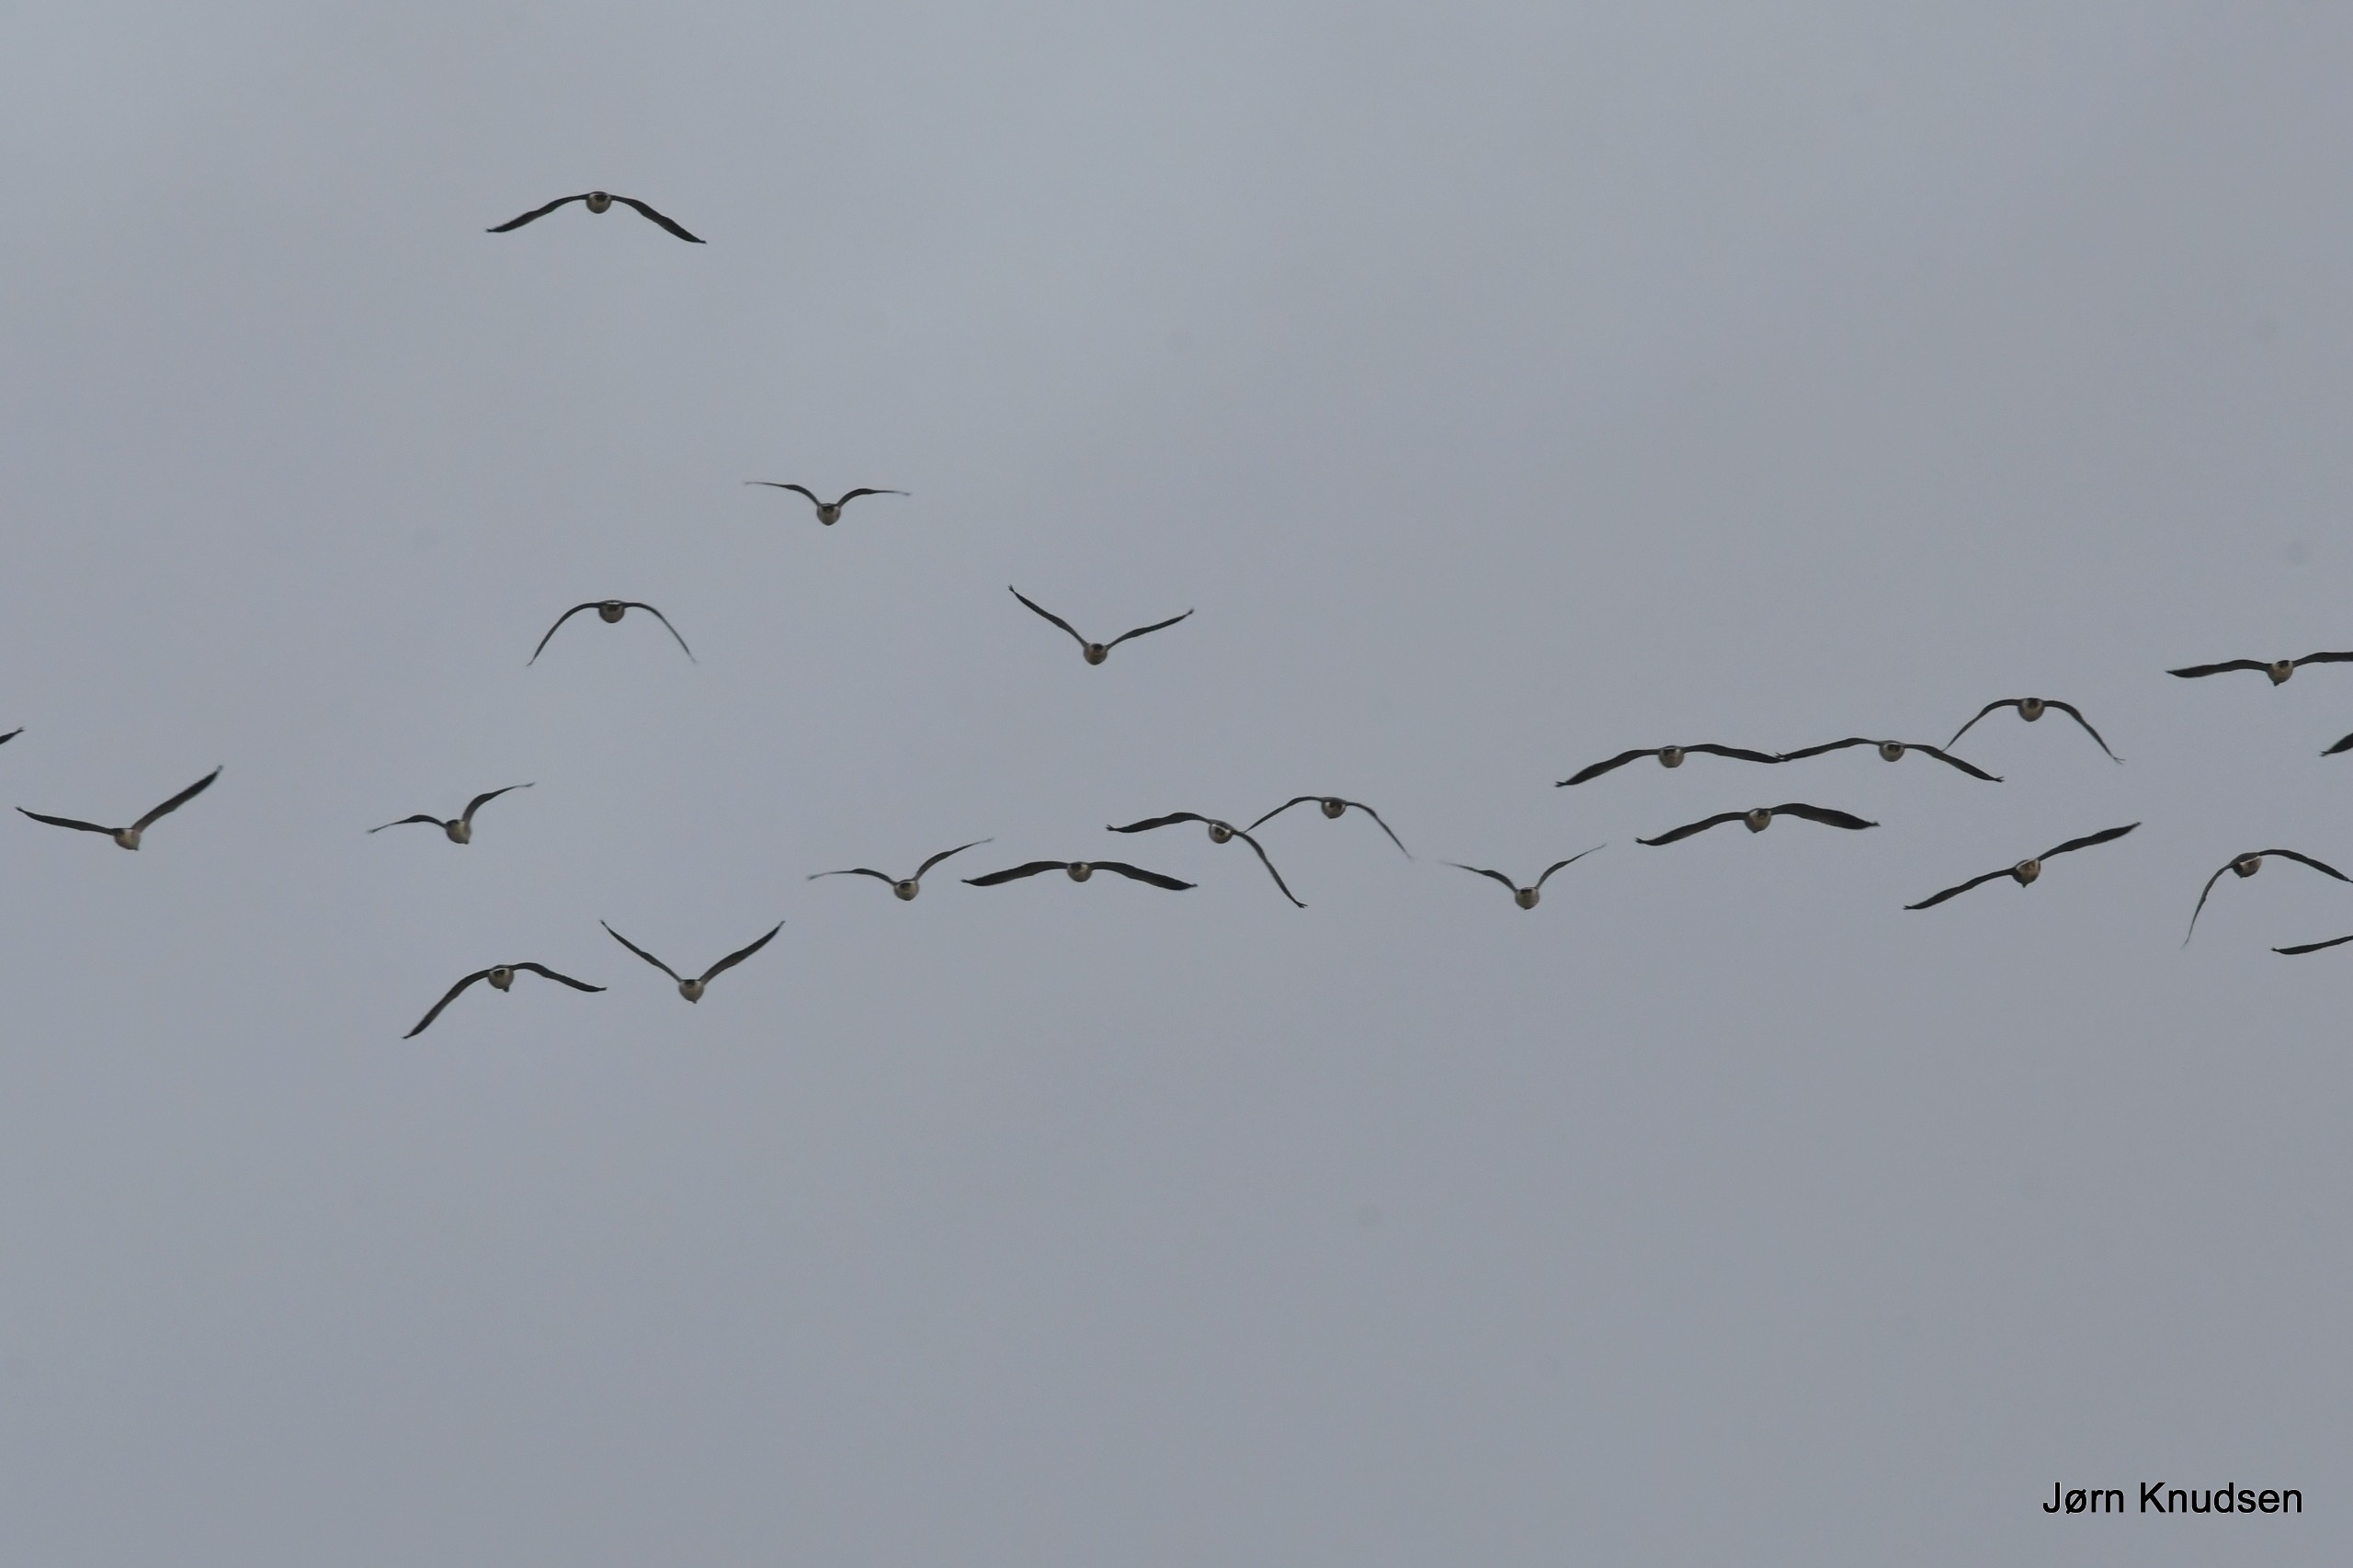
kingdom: Animalia
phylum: Chordata
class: Aves
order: Anseriformes
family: Anatidae
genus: Anser
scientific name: Anser anser
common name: Grågås
